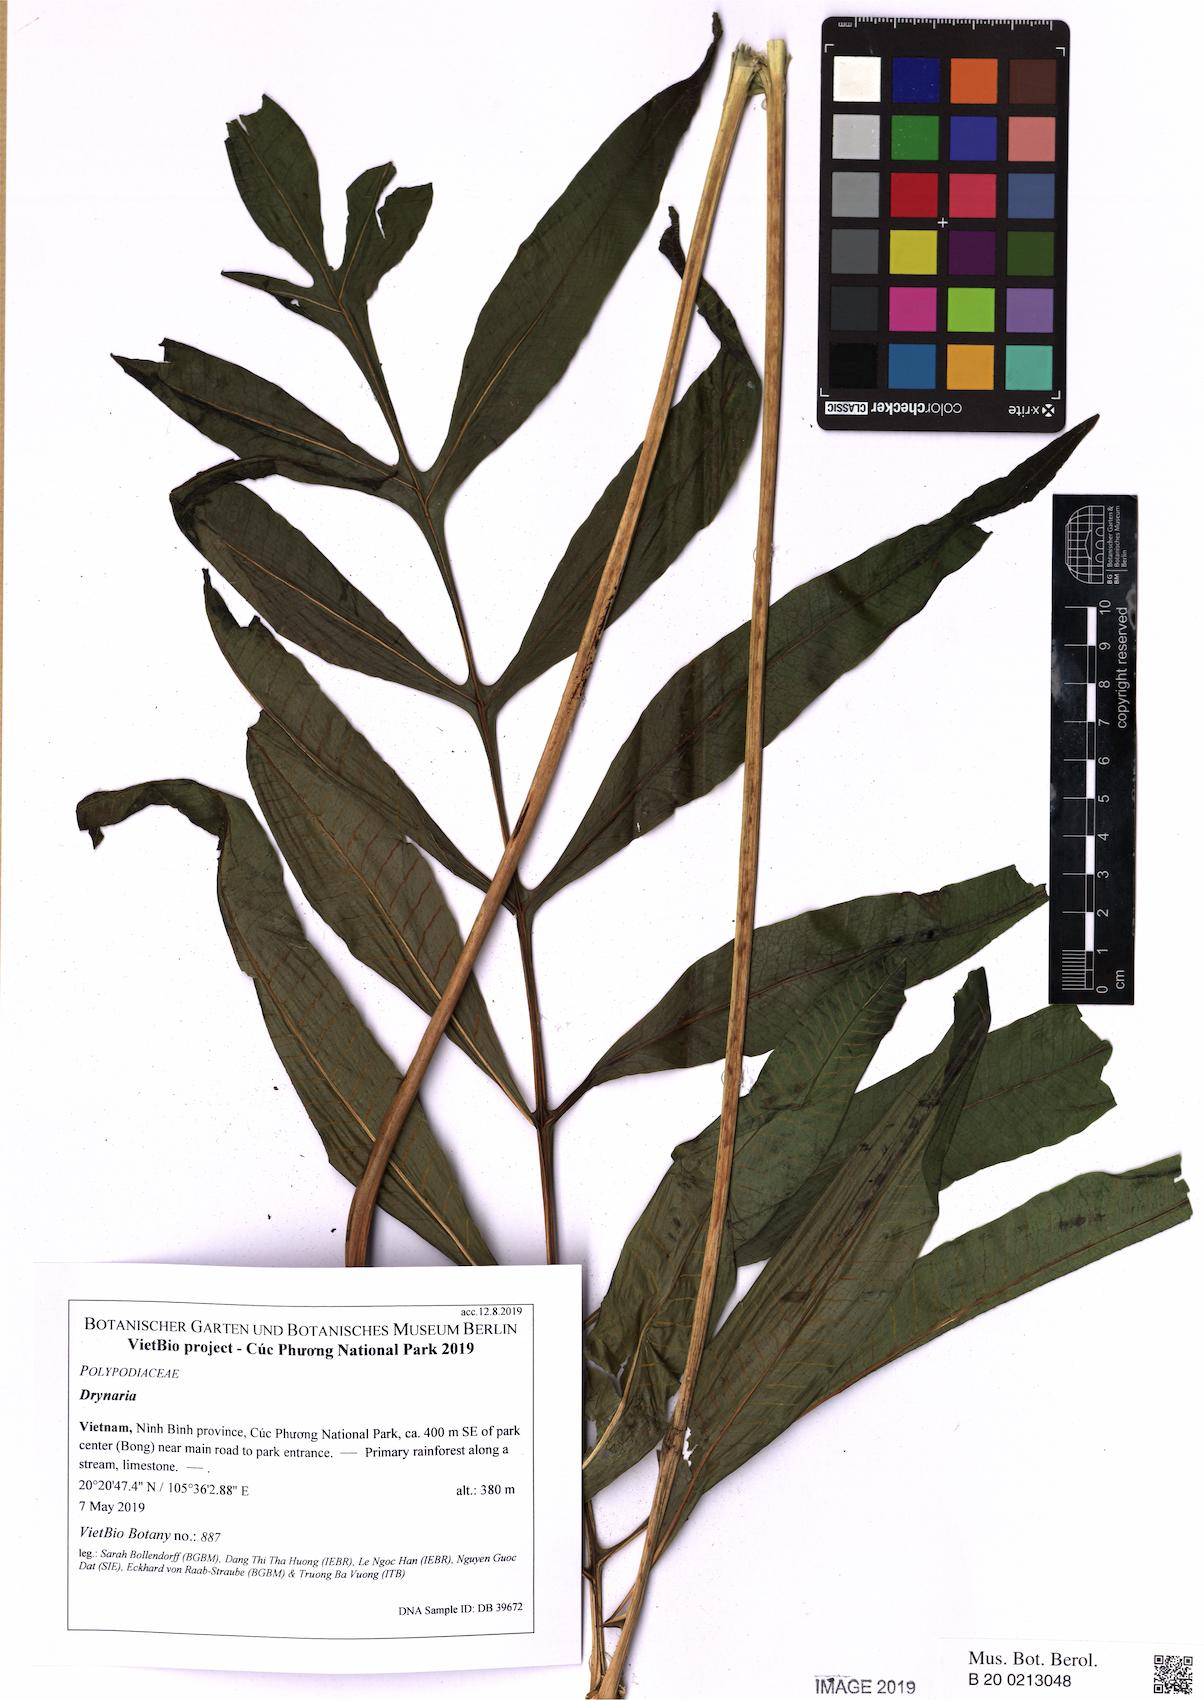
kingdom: Plantae
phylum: Tracheophyta
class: Polypodiopsida
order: Polypodiales
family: Polypodiaceae
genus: Leptochilus
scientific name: Leptochilus
